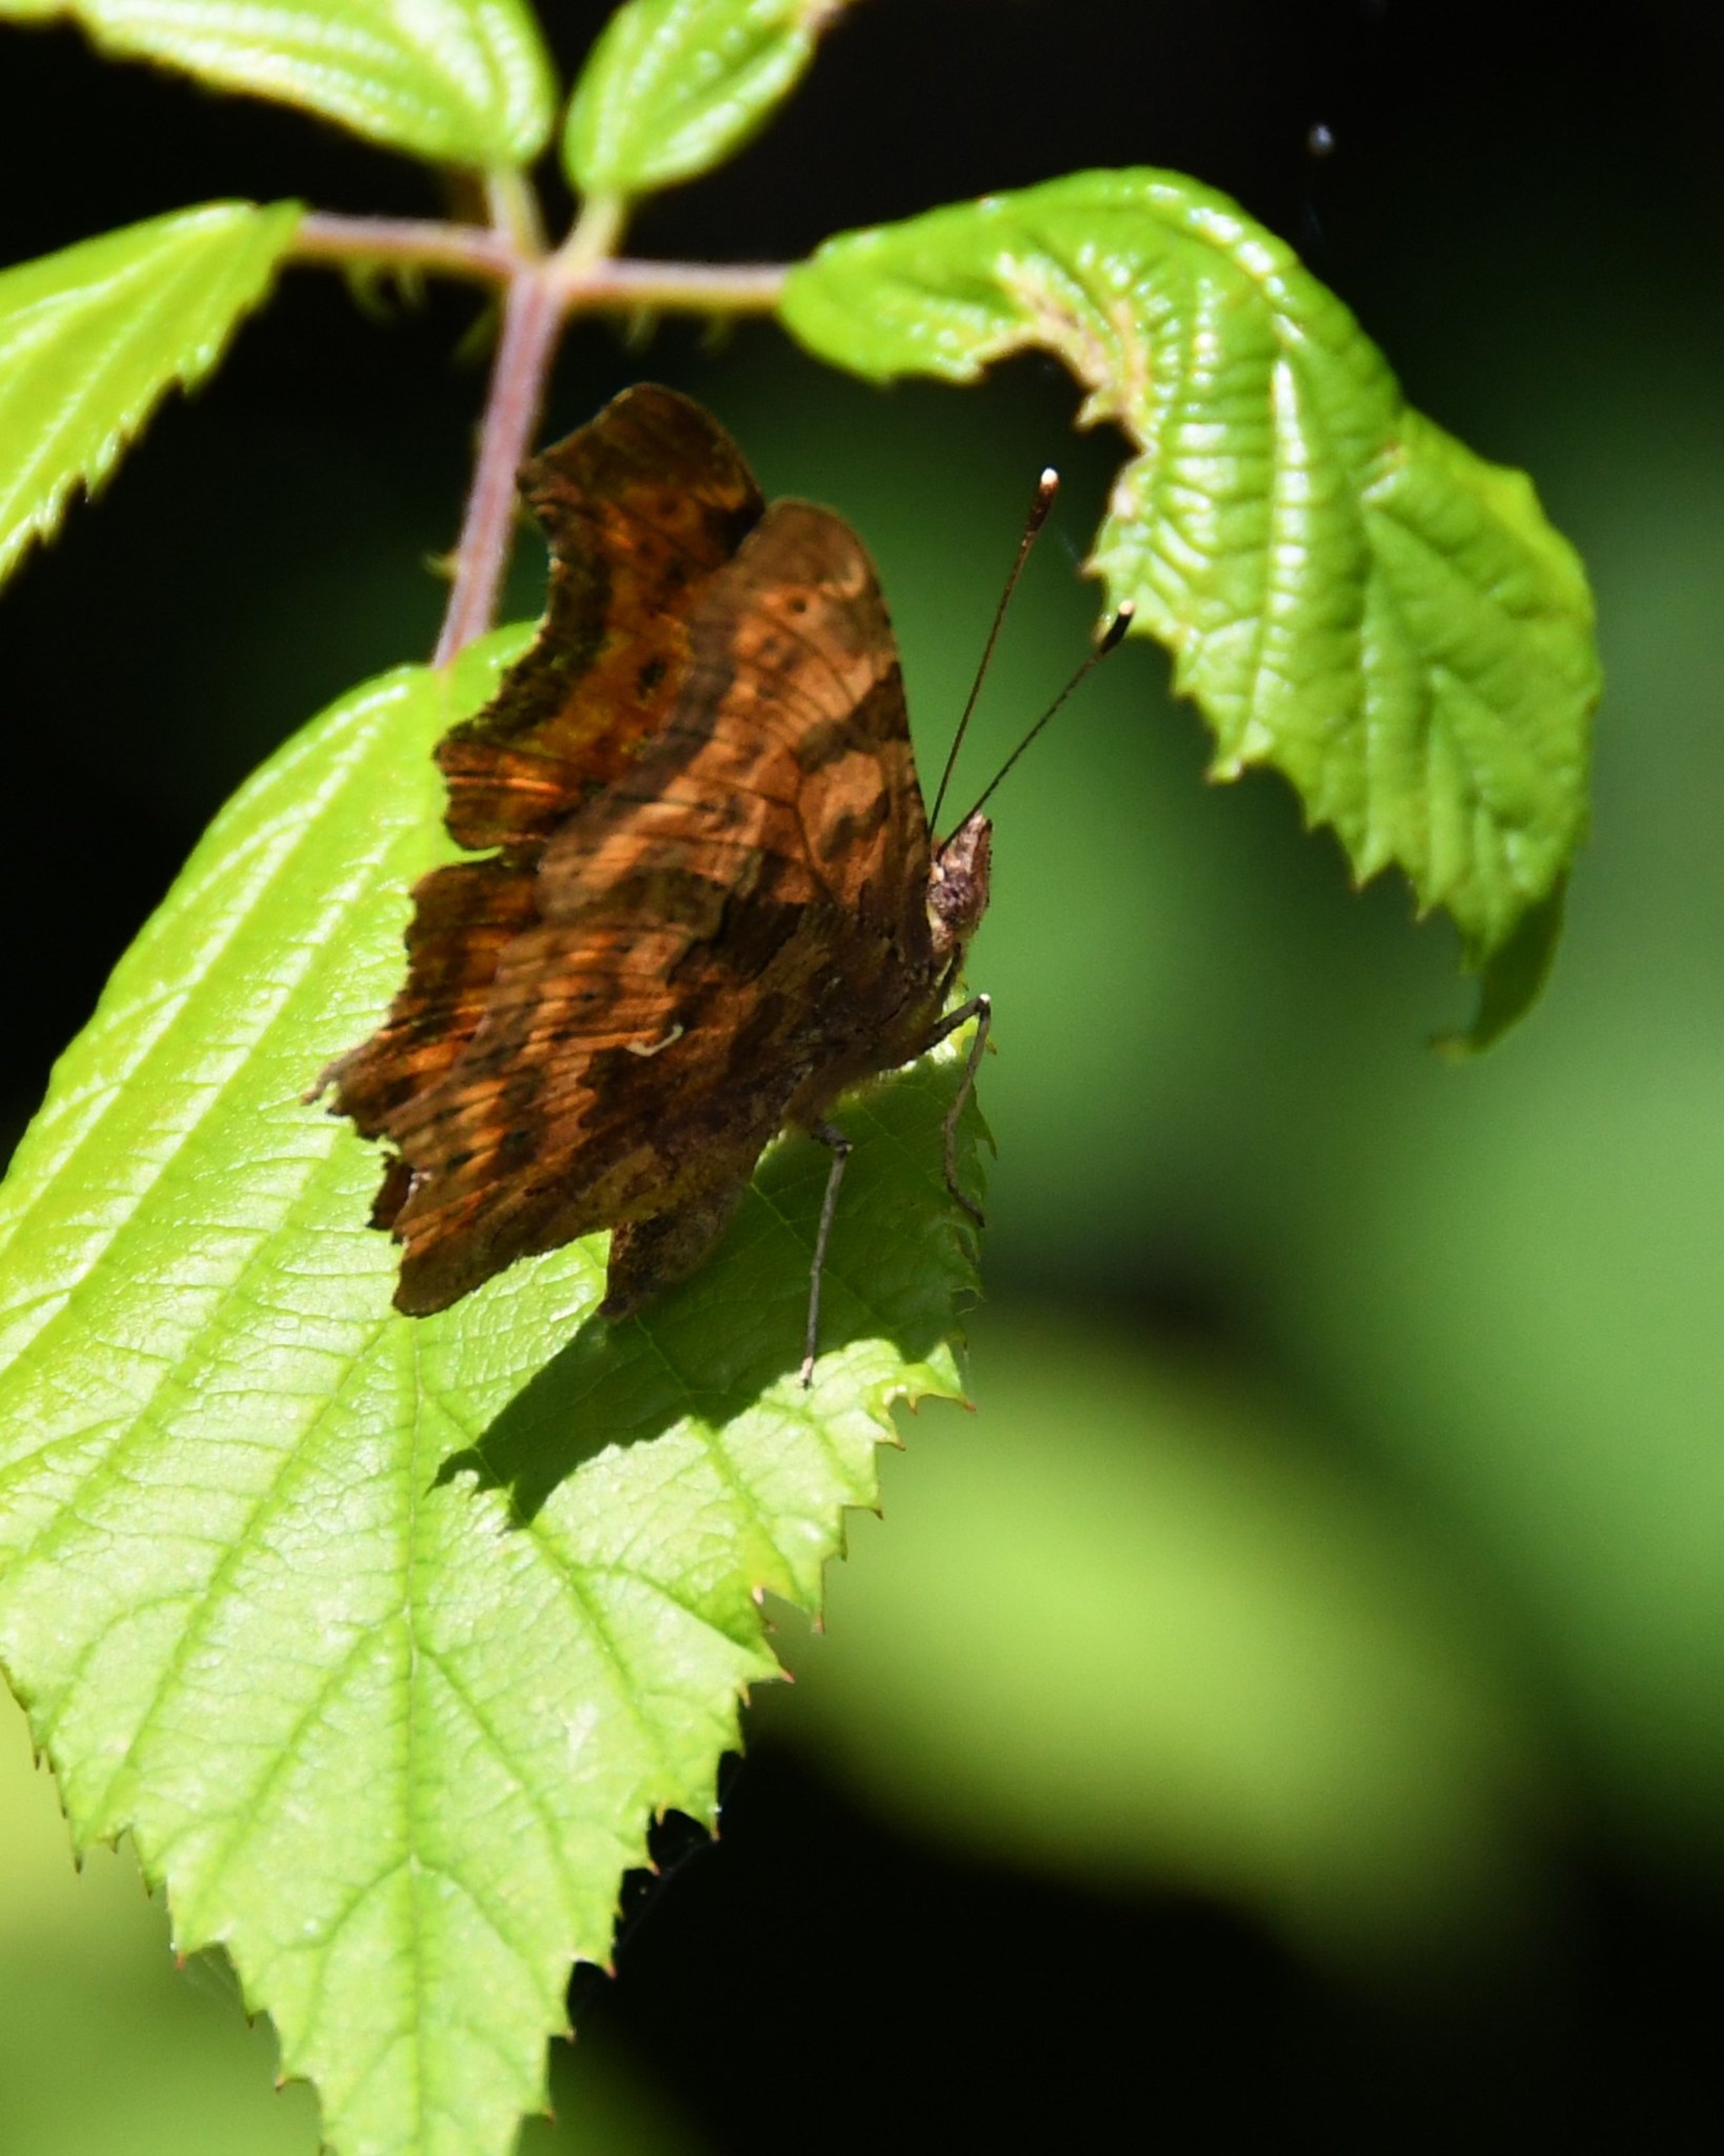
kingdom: Animalia
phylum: Arthropoda
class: Insecta
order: Lepidoptera
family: Nymphalidae
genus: Polygonia
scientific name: Polygonia c-album
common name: Det hvide C
